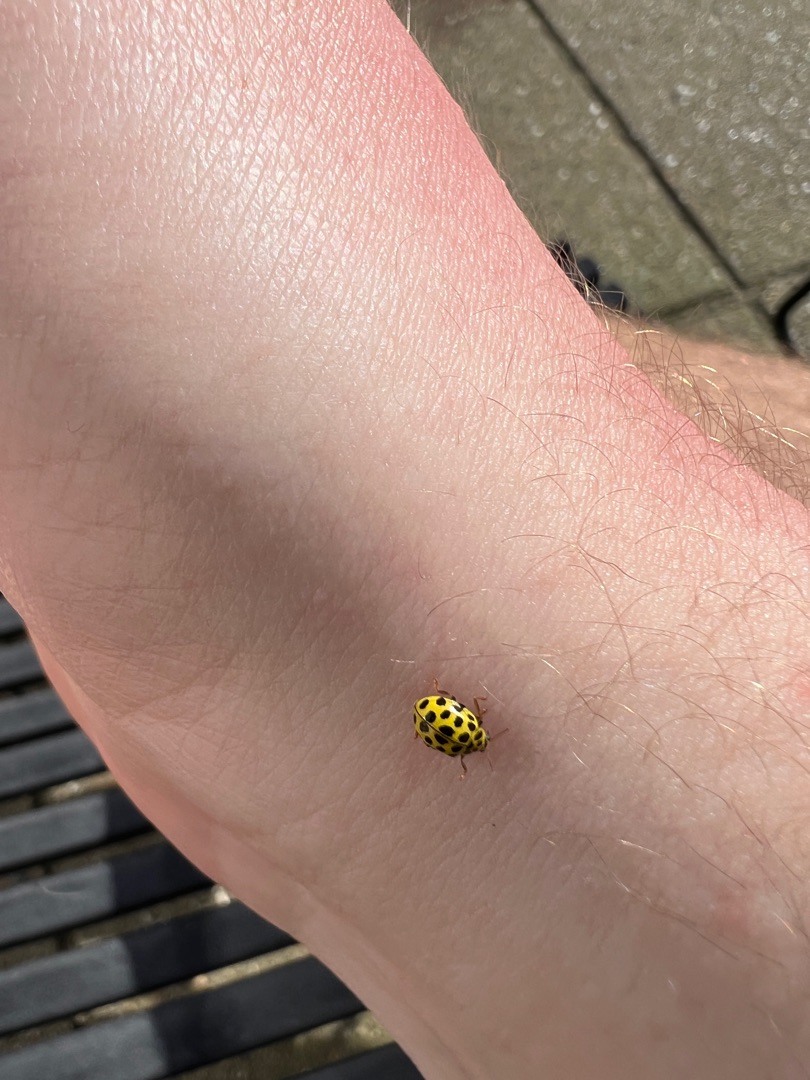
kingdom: Animalia
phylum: Arthropoda
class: Insecta
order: Coleoptera
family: Coccinellidae
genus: Psyllobora
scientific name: Psyllobora vigintiduopunctata
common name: Toogtyveplettet mariehøne
